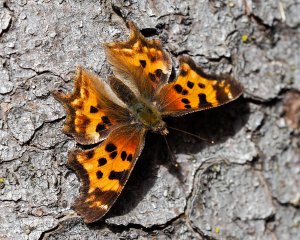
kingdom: Animalia
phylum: Arthropoda
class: Insecta
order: Lepidoptera
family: Nymphalidae
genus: Polygonia
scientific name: Polygonia satyrus
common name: Satyr Comma
